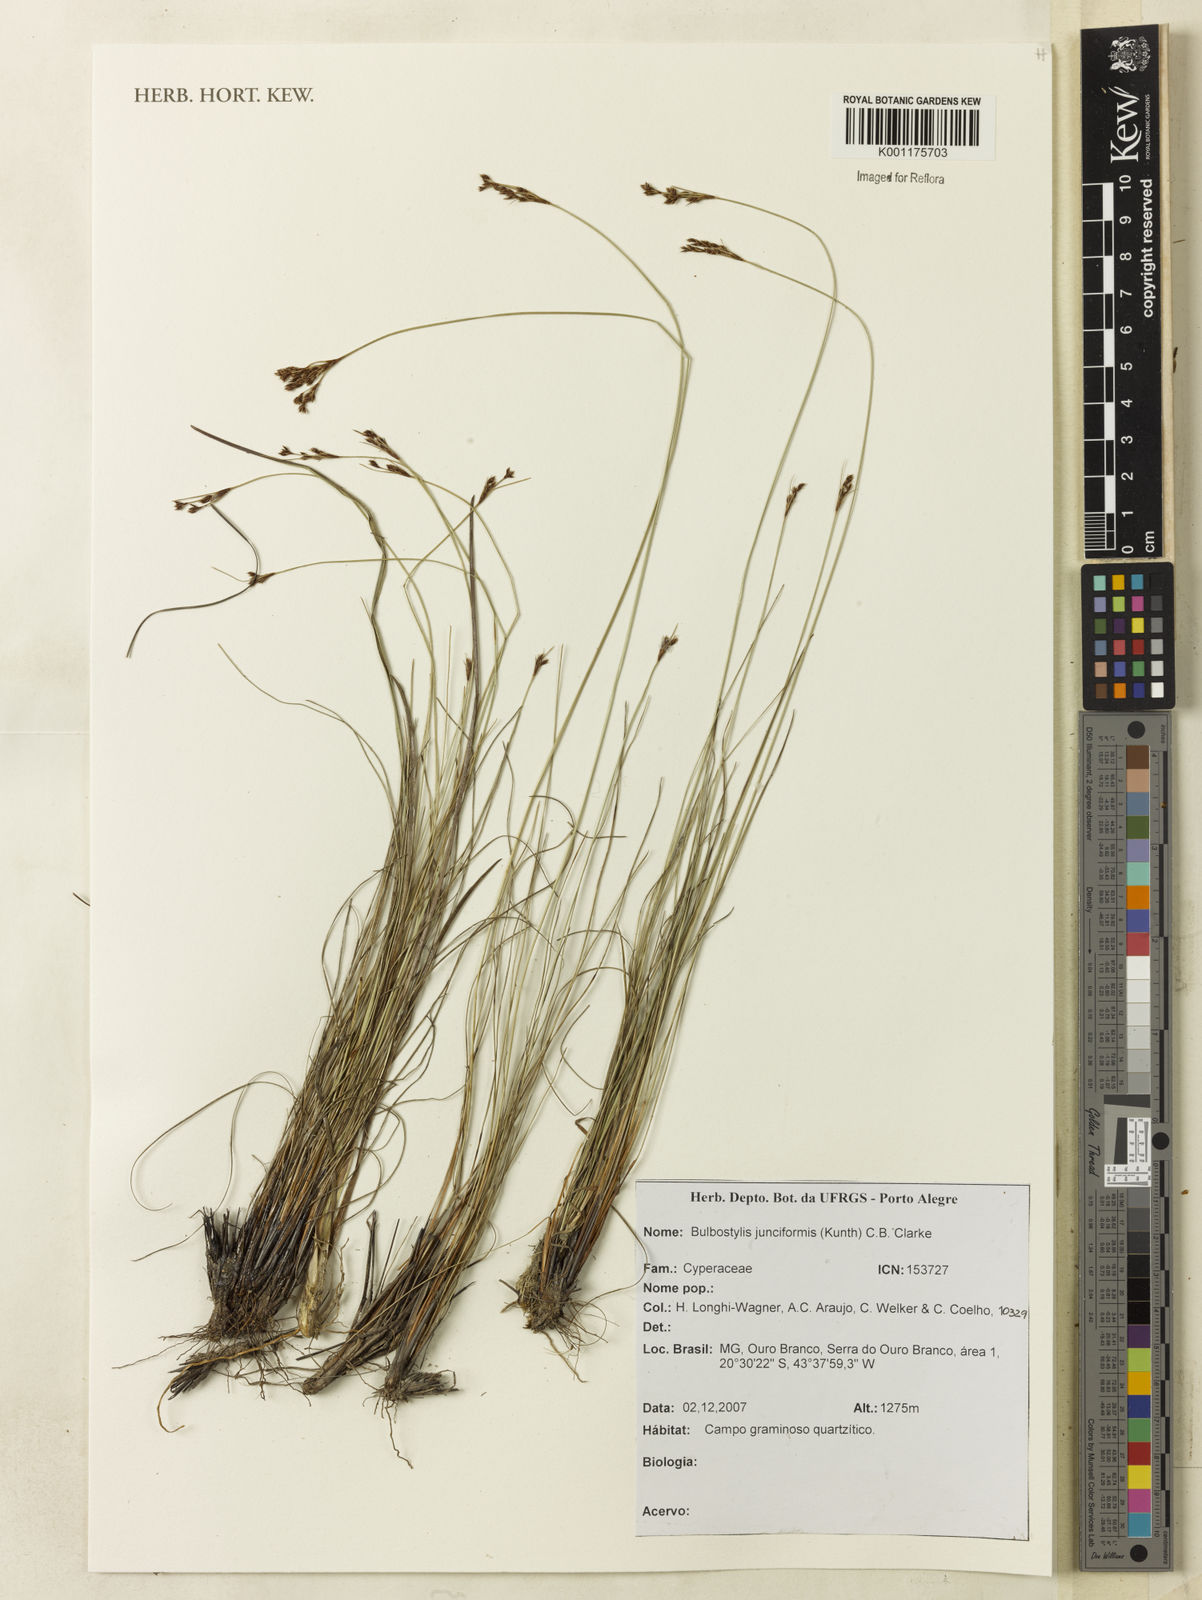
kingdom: Plantae
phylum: Tracheophyta
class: Liliopsida
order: Poales
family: Cyperaceae
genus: Bulbostylis
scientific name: Bulbostylis junciformis
